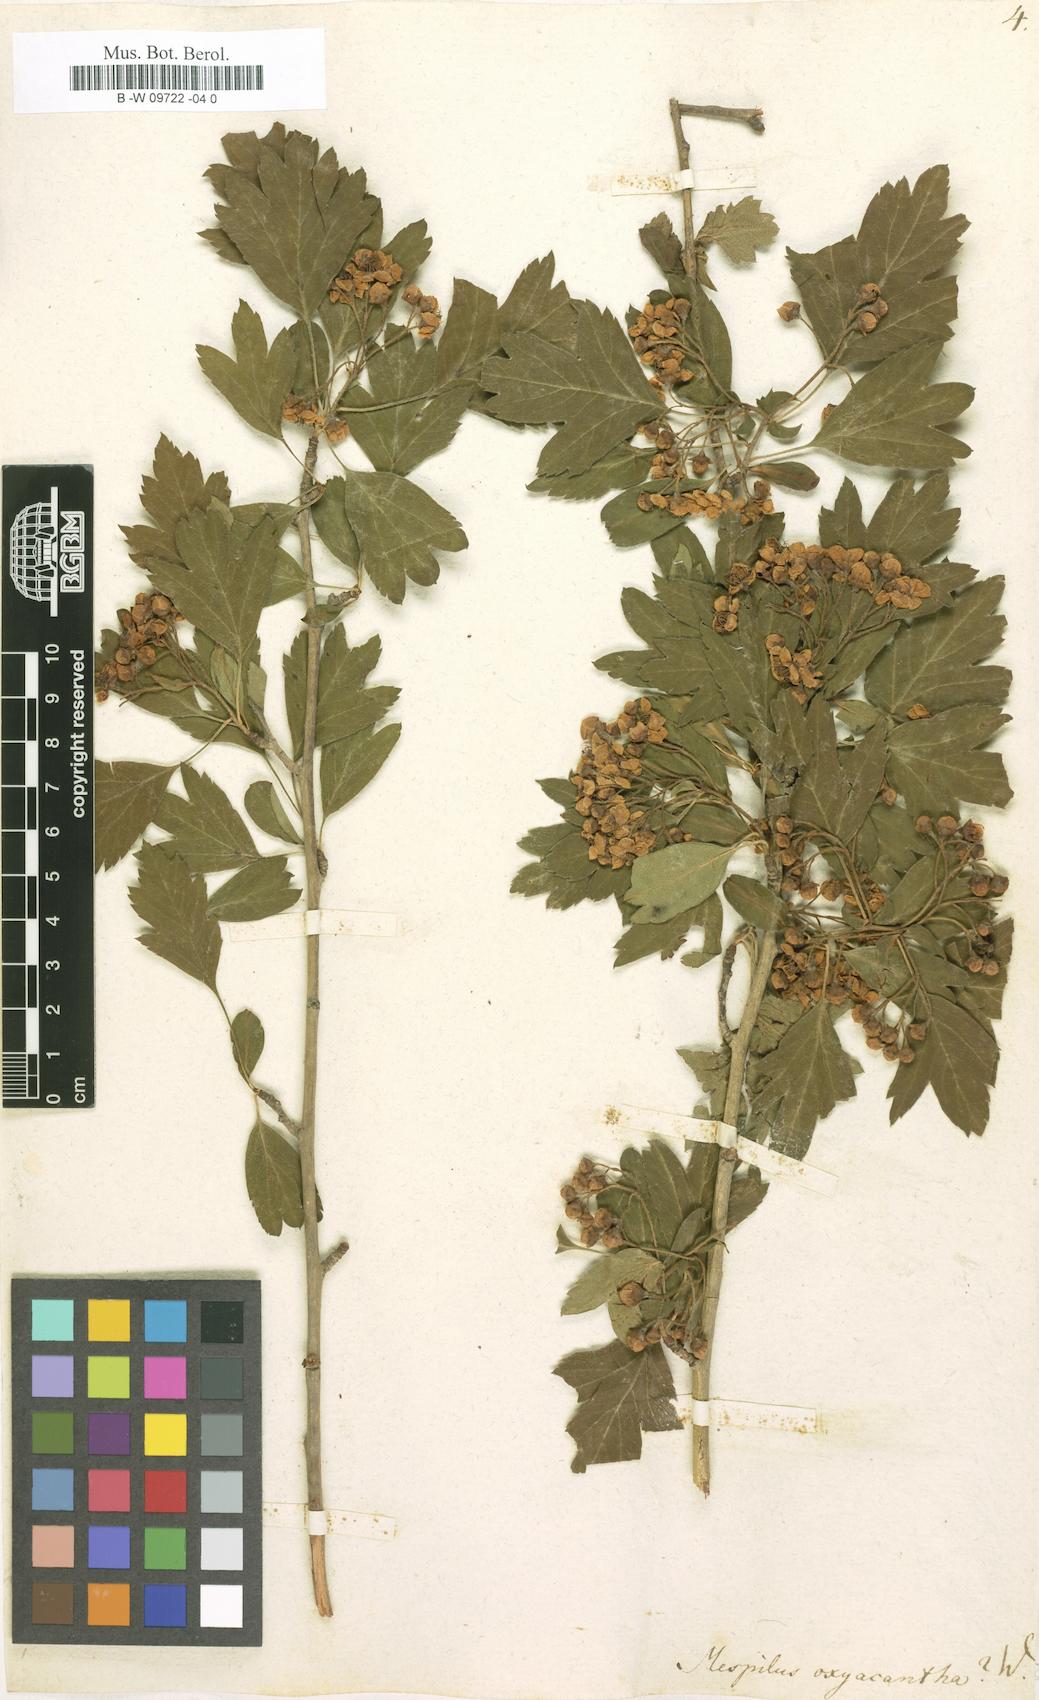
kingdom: Plantae
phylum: Tracheophyta
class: Magnoliopsida
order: Rosales
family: Rosaceae
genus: Crataegus
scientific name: Crataegus
